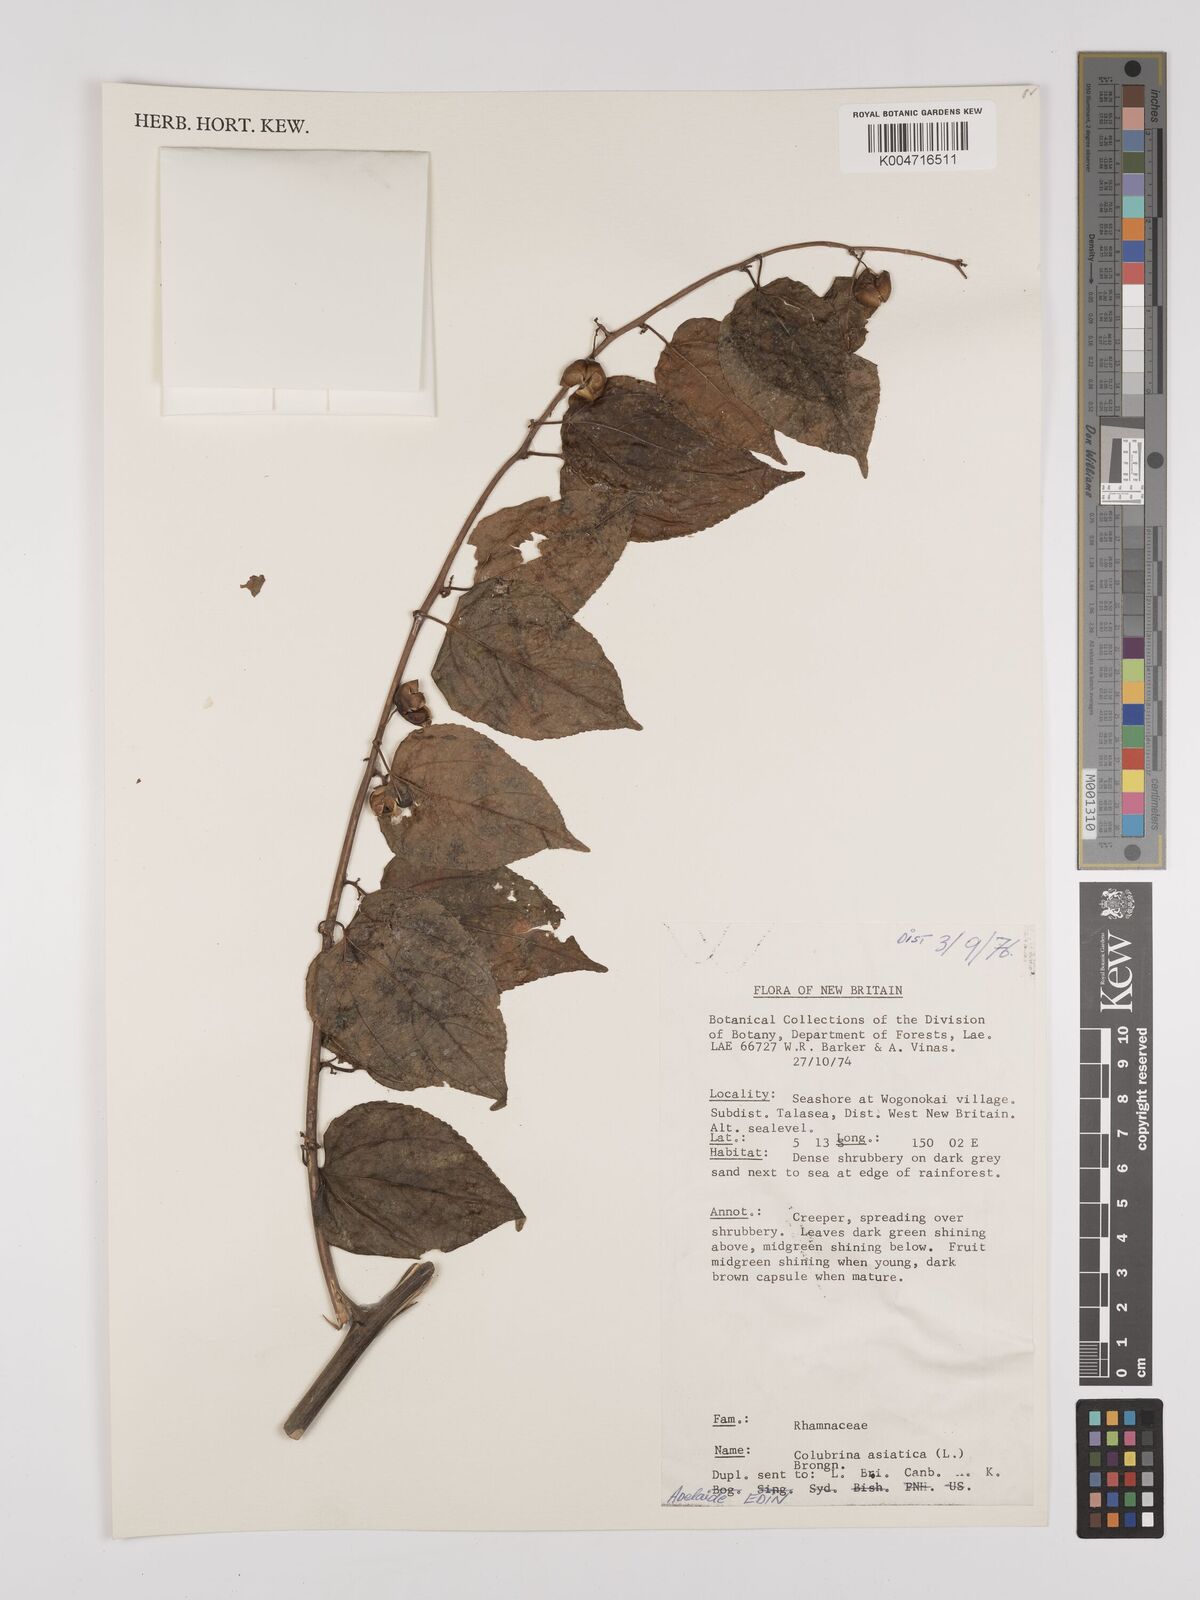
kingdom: Plantae
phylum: Tracheophyta
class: Magnoliopsida
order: Rosales
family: Rhamnaceae
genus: Colubrina
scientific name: Colubrina asiatica
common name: Asian nakedwood
